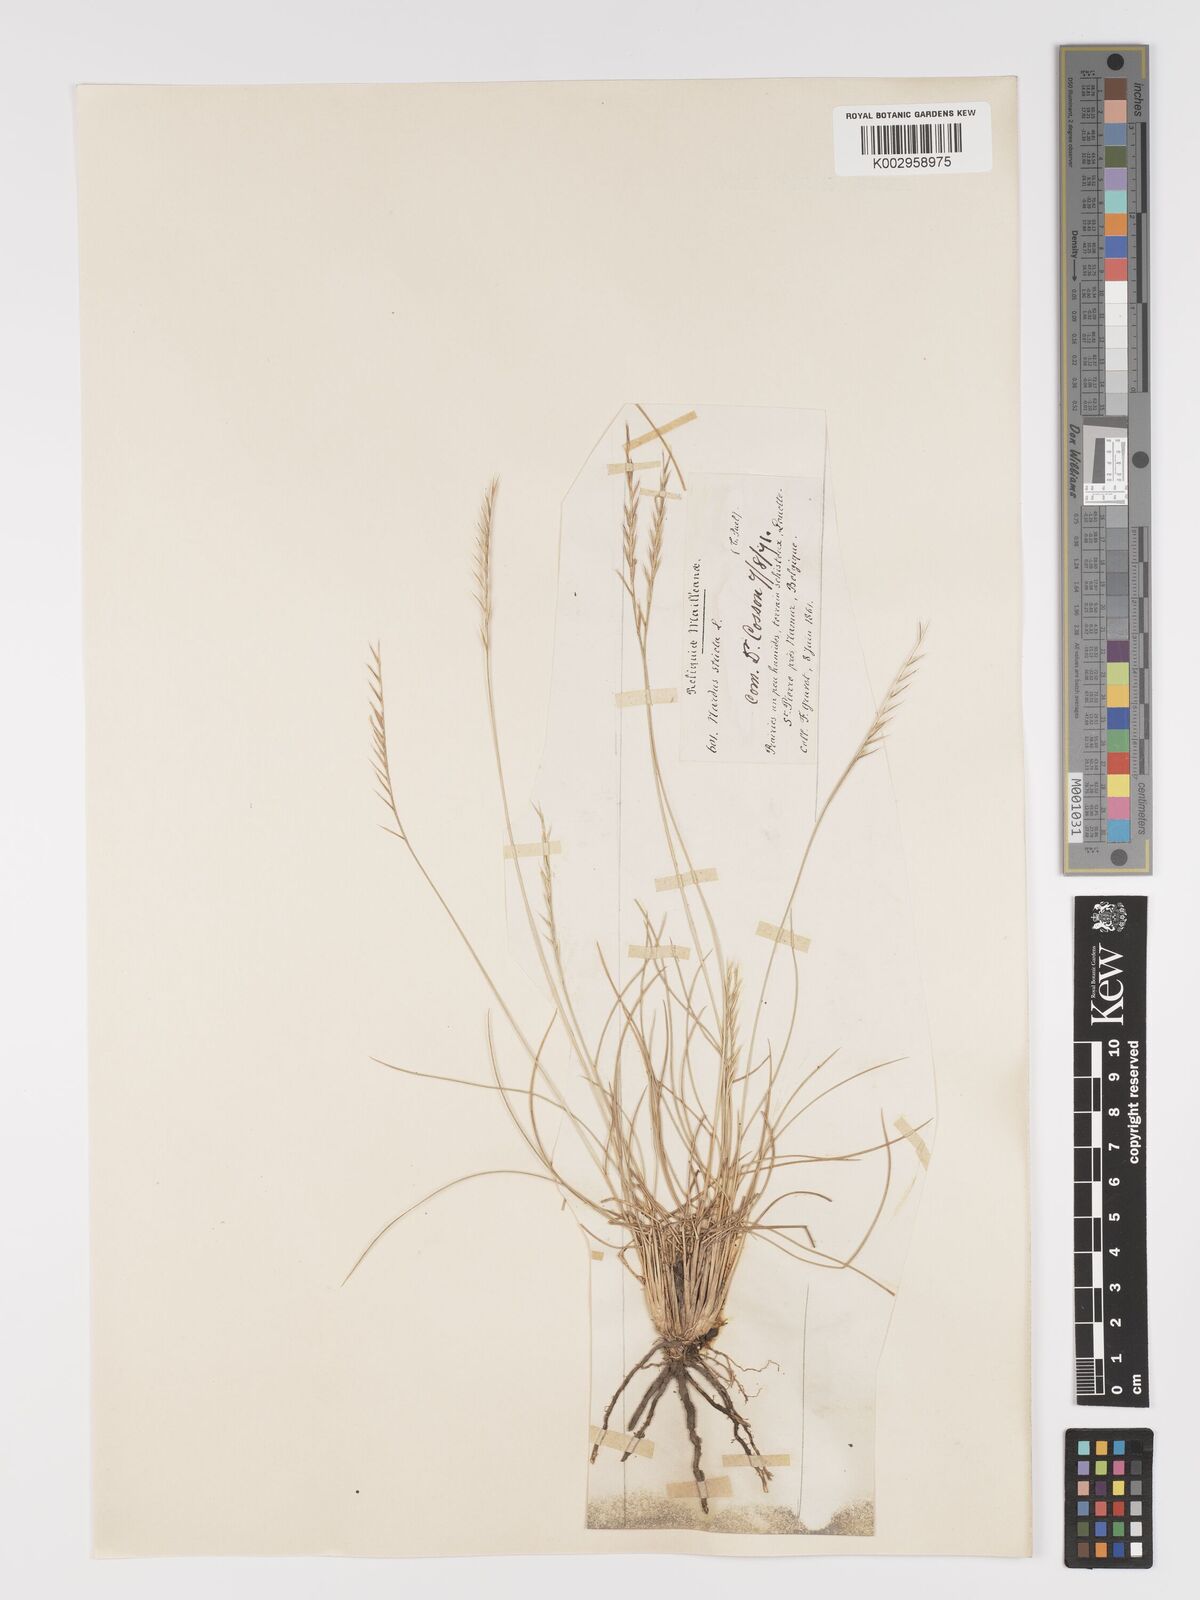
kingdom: Plantae
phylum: Tracheophyta
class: Liliopsida
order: Poales
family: Poaceae
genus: Nardus
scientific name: Nardus stricta
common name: Mat-grass
